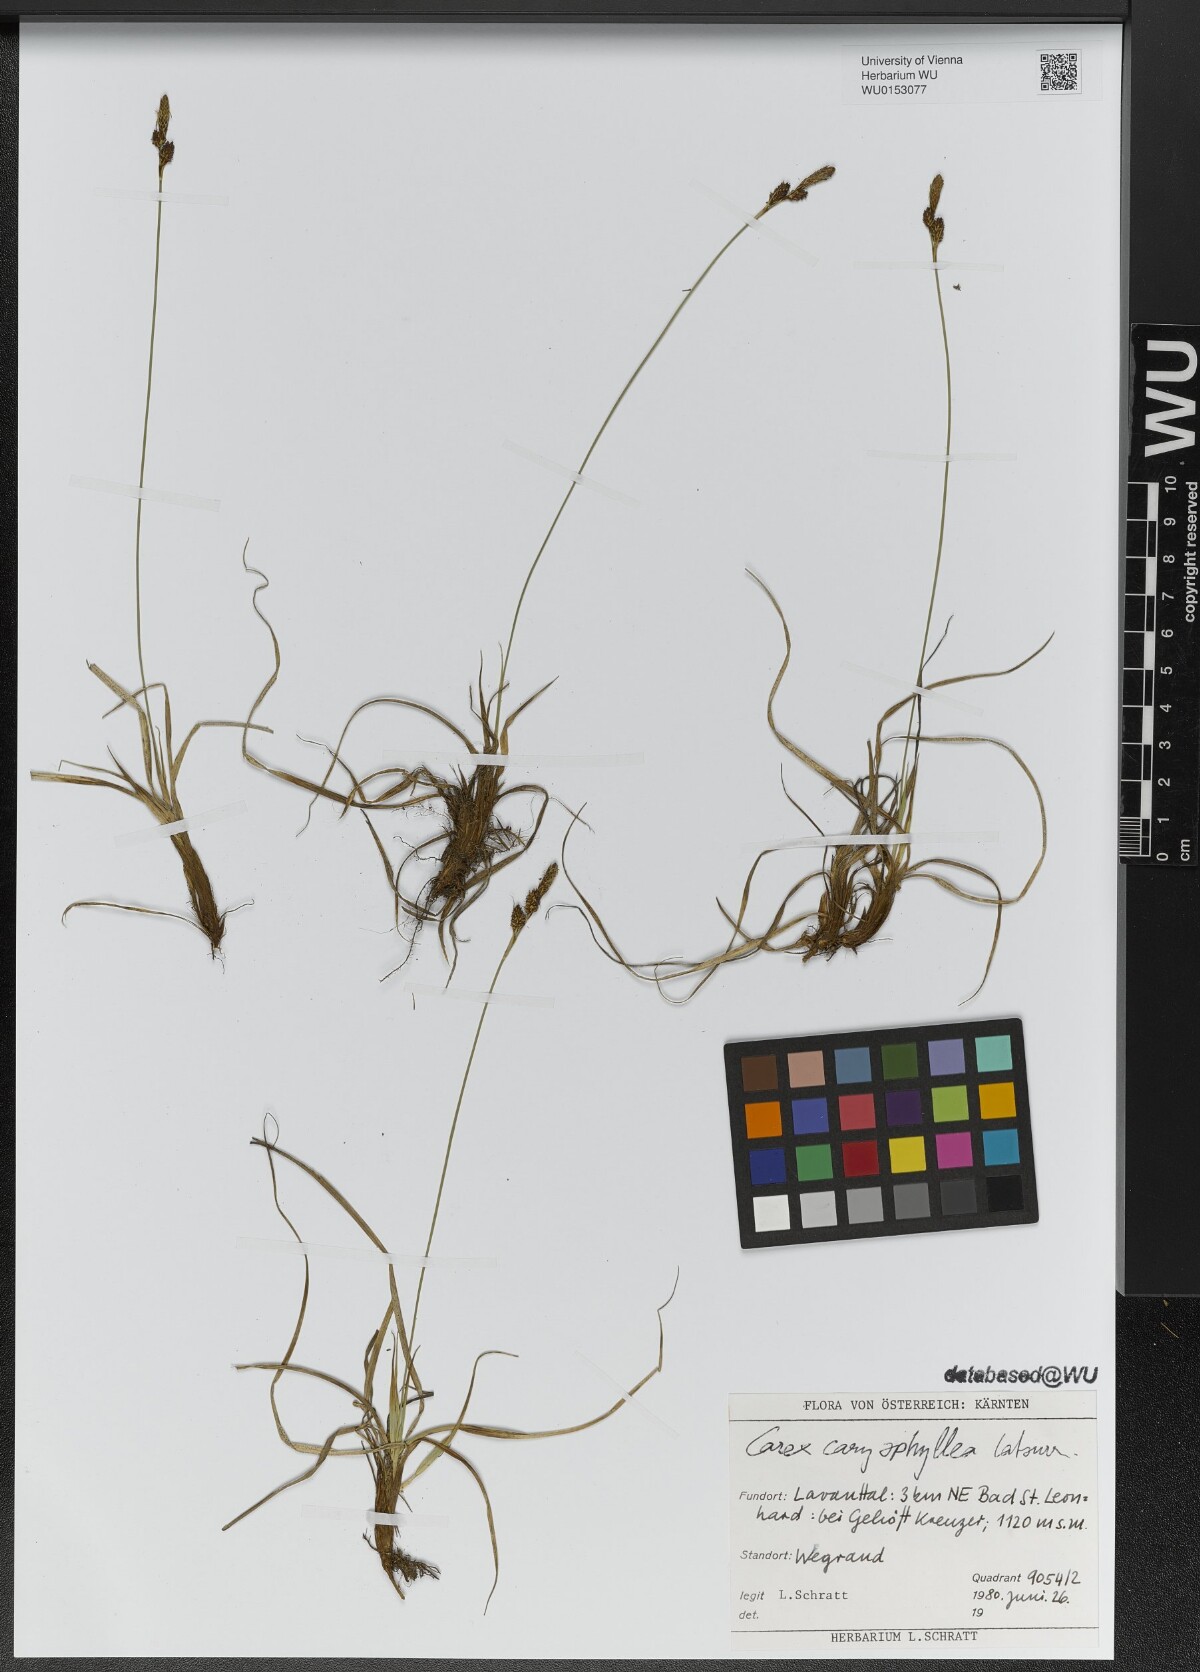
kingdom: Plantae
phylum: Tracheophyta
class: Liliopsida
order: Poales
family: Cyperaceae
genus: Carex
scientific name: Carex caryophyllea
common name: Spring sedge
